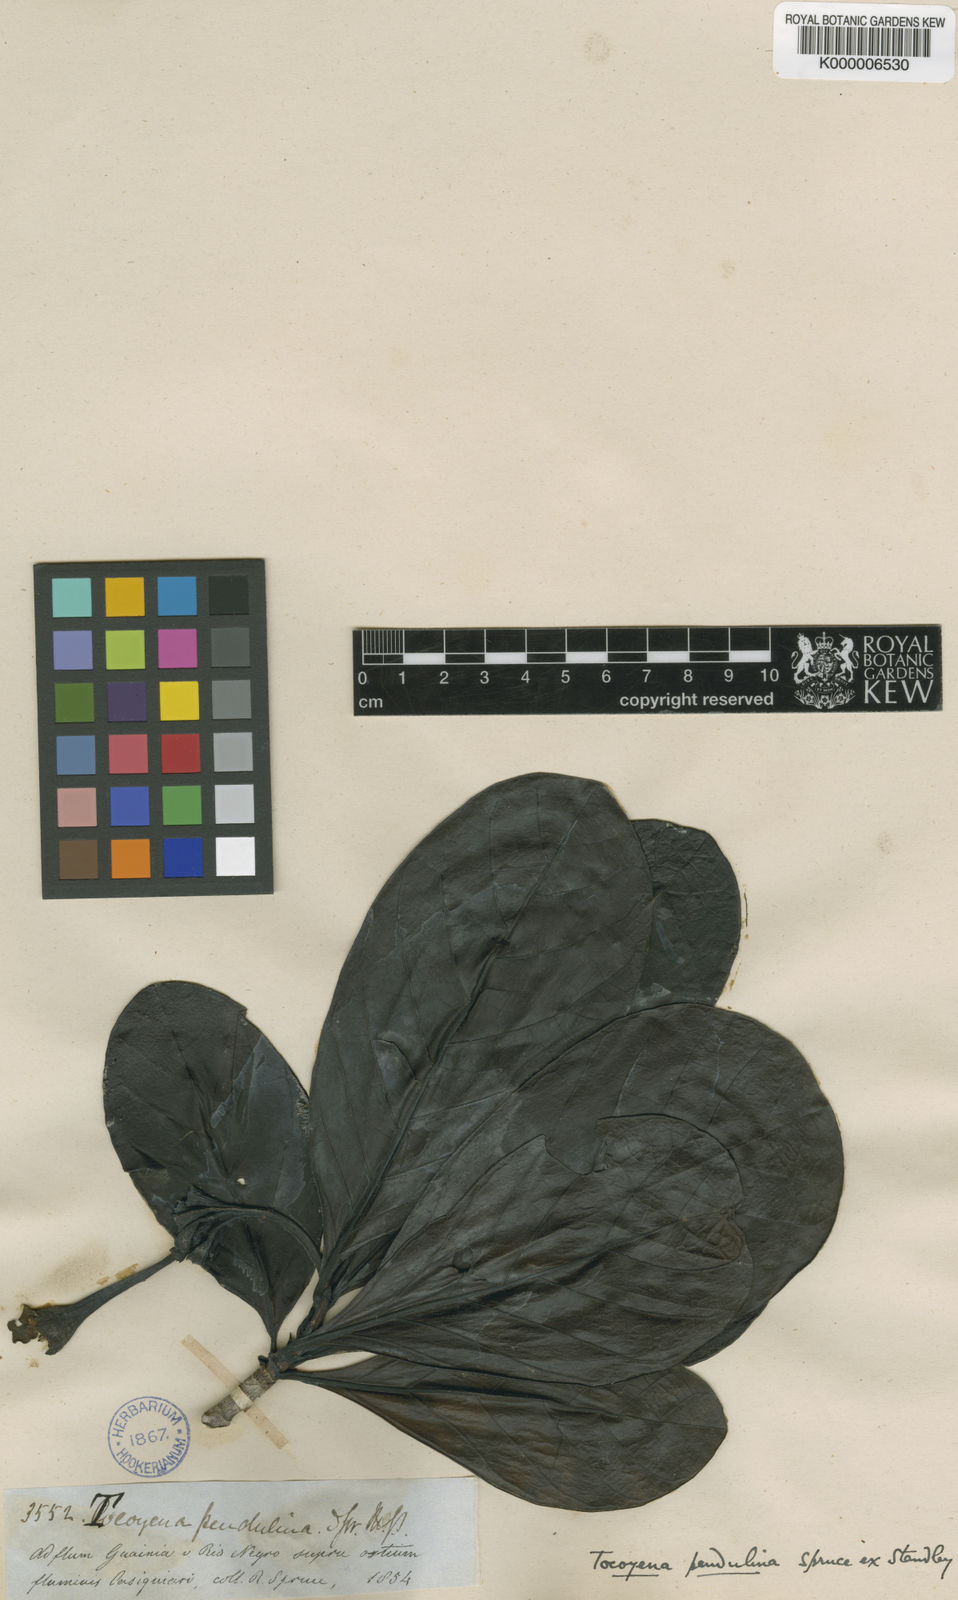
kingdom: Plantae
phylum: Tracheophyta
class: Magnoliopsida
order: Gentianales
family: Rubiaceae
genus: Tocoyena
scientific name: Tocoyena pendulina
